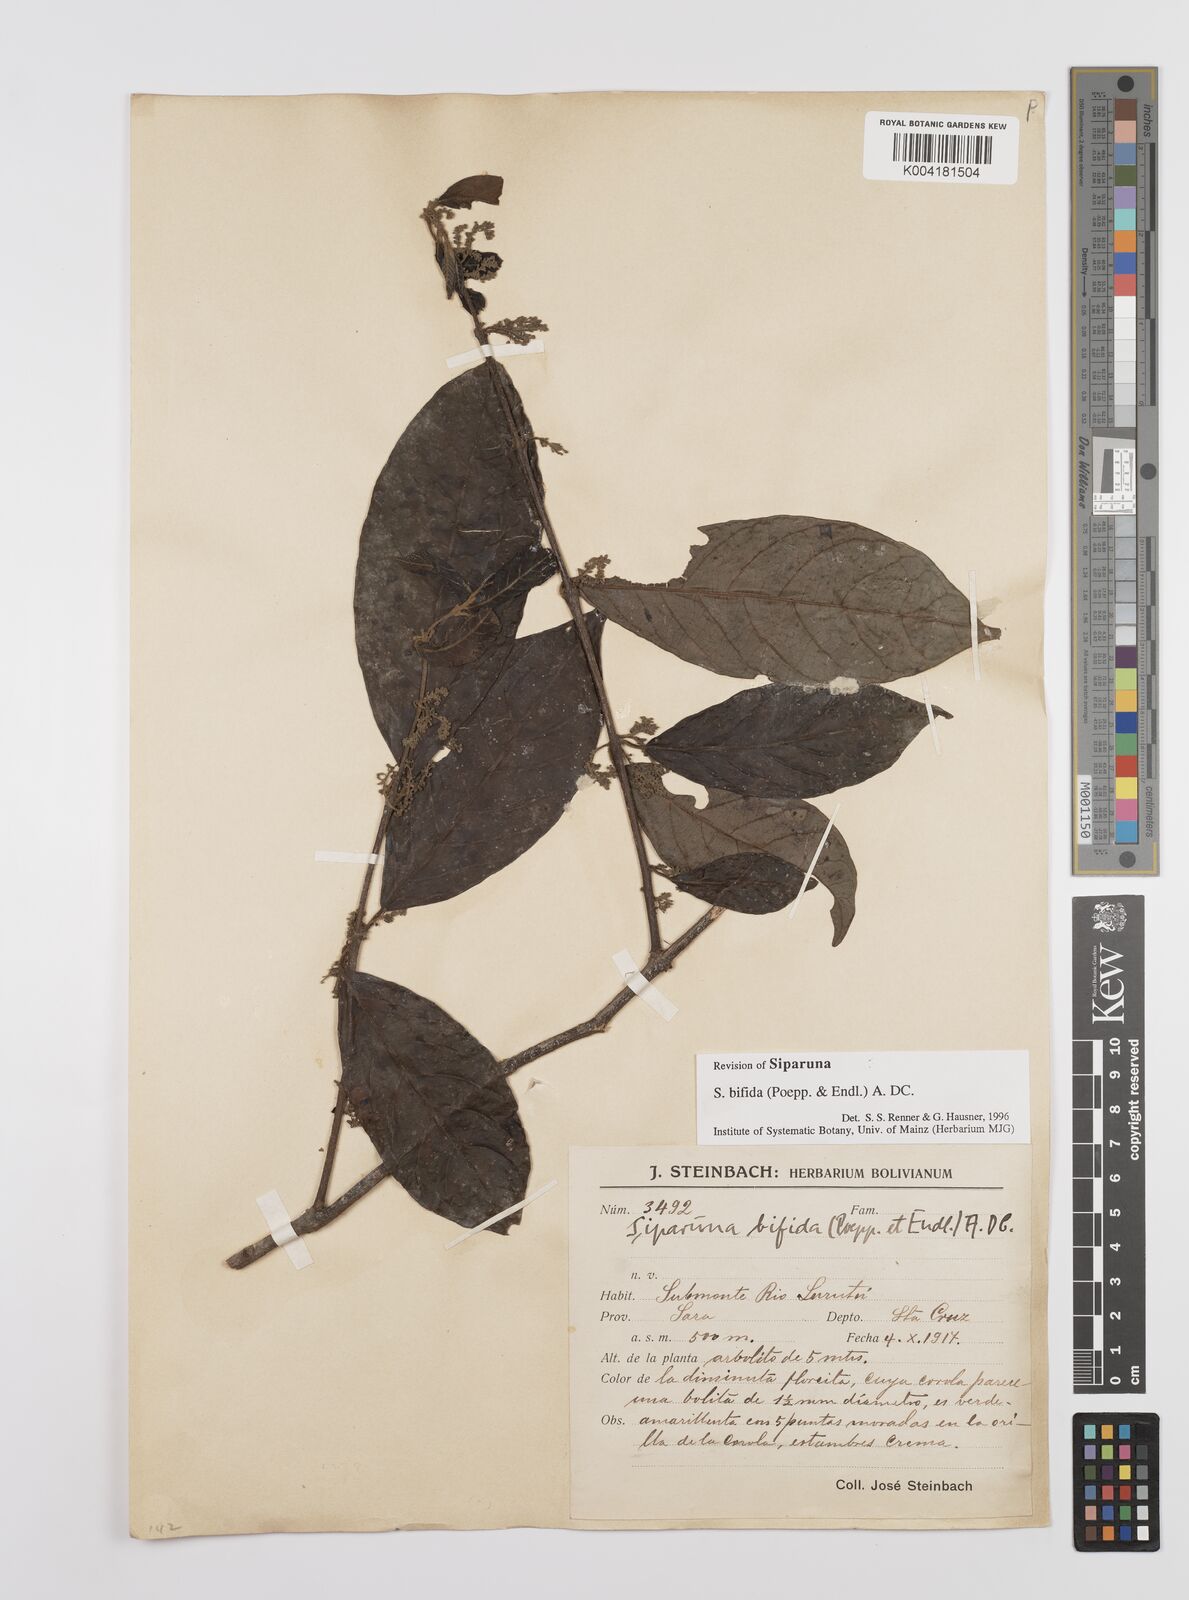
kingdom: Plantae
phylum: Tracheophyta
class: Magnoliopsida
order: Laurales
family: Siparunaceae
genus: Siparuna
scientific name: Siparuna bifida
